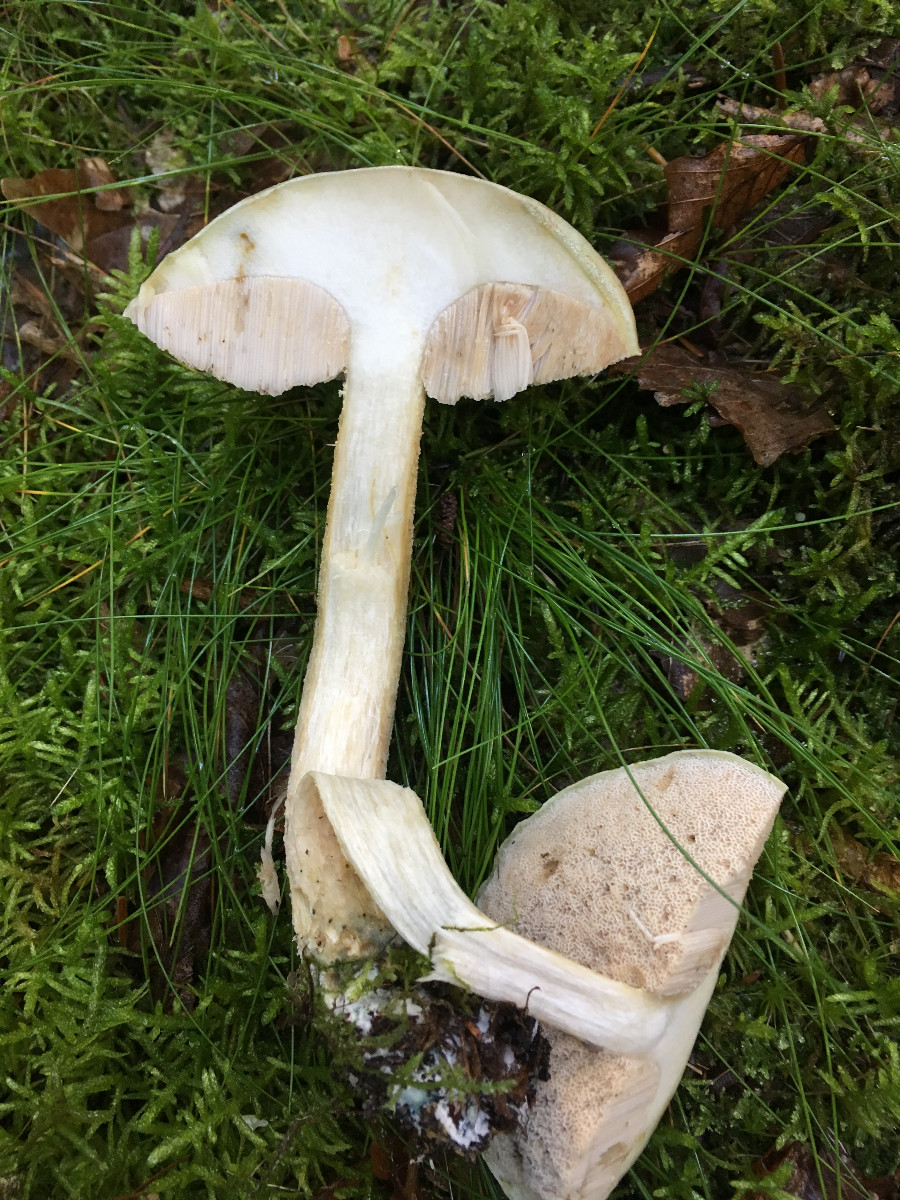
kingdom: Fungi
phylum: Basidiomycota
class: Agaricomycetes
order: Boletales
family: Boletaceae
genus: Leccinum
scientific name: Leccinum scabrum
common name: hvid skælrørhat
